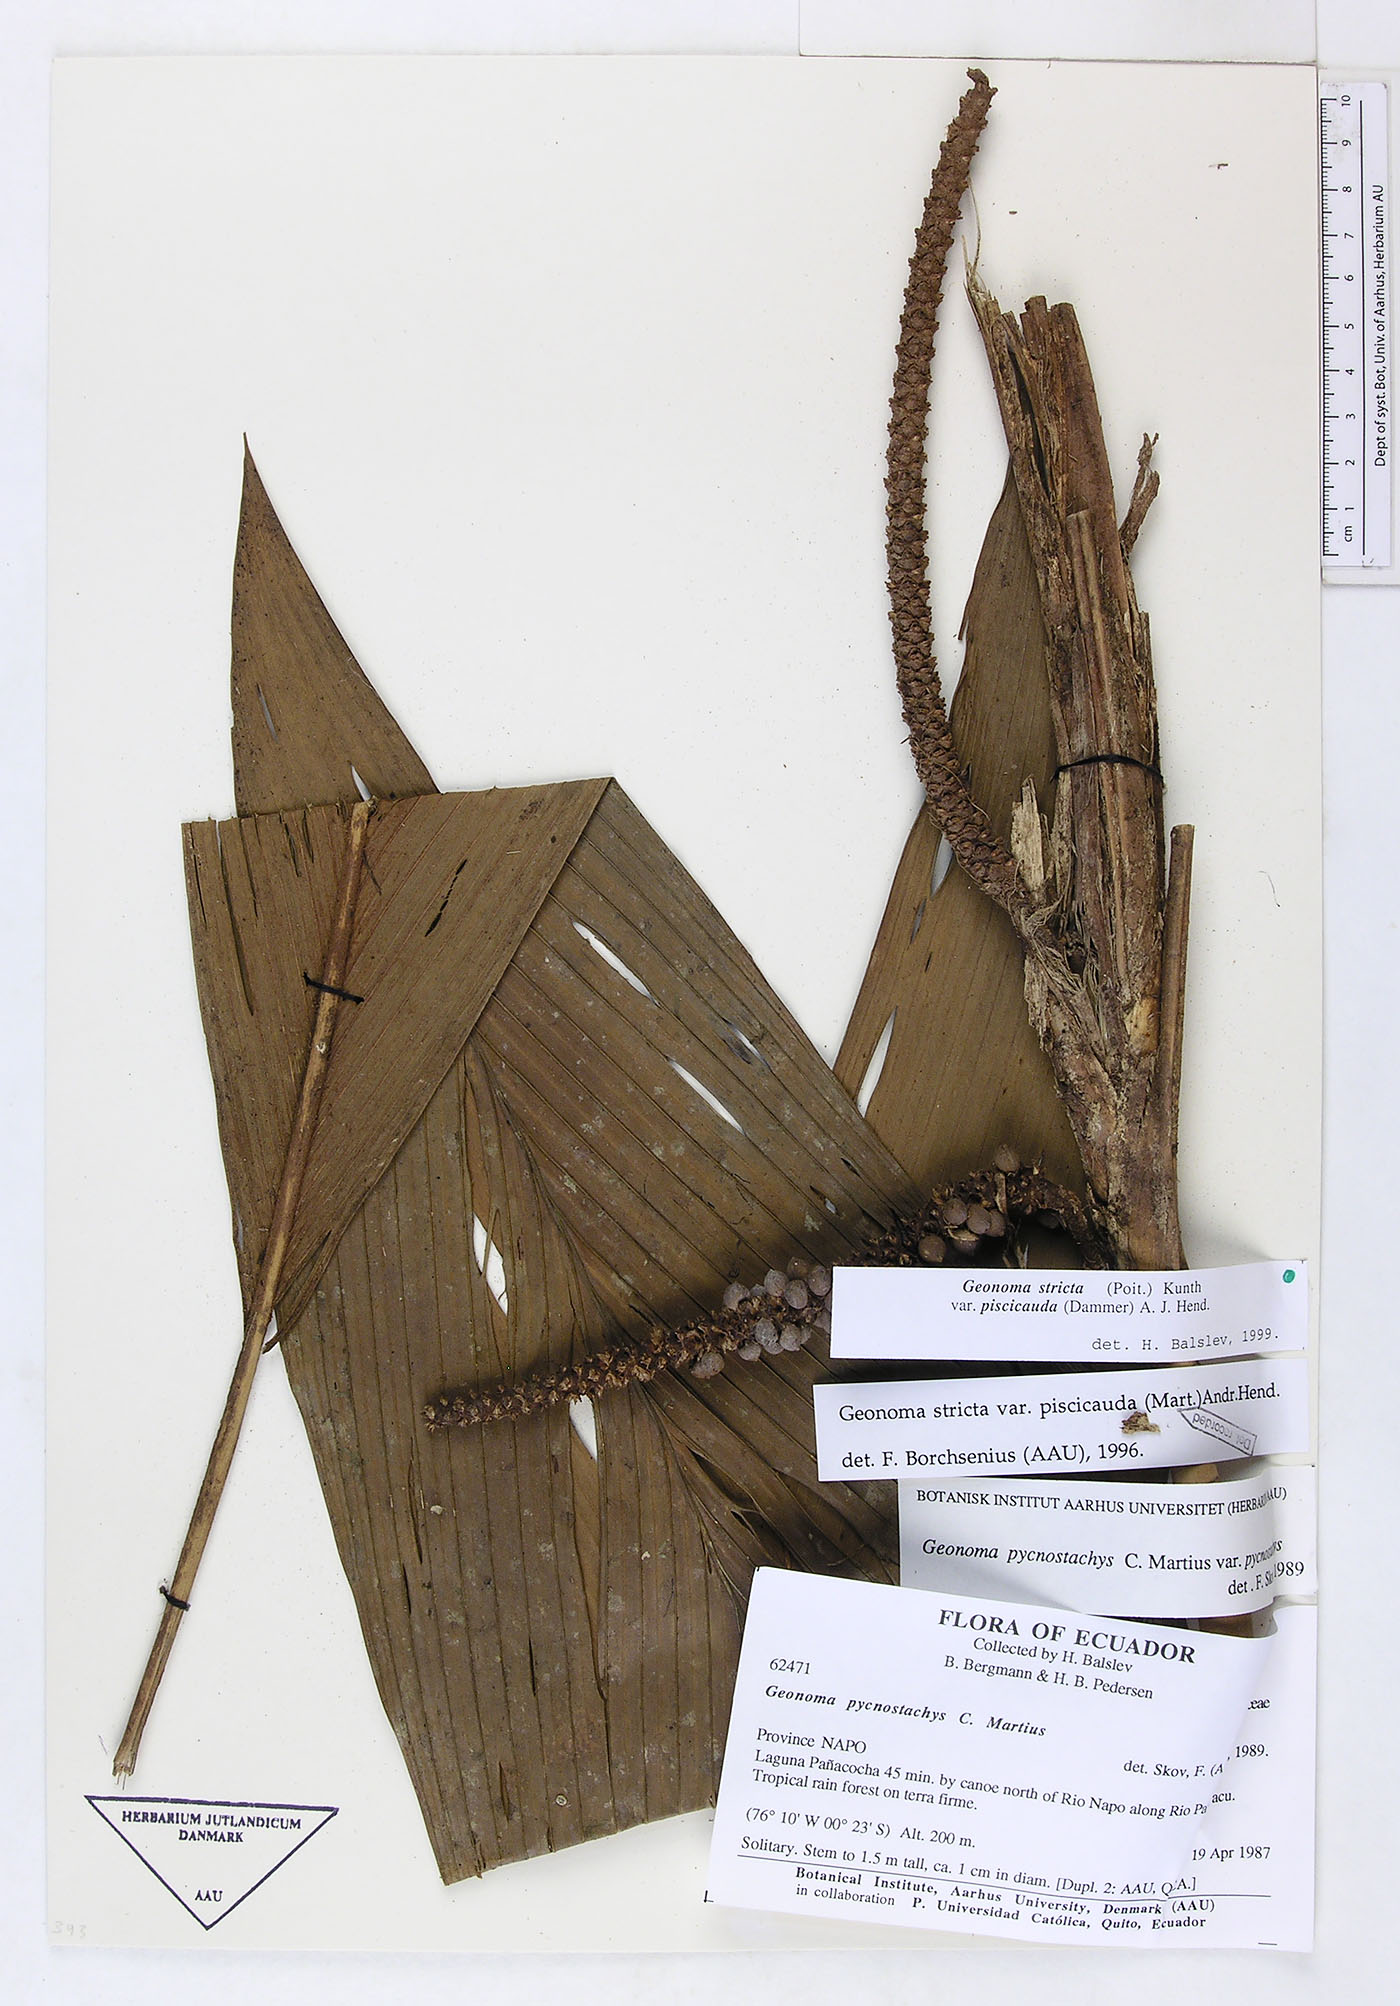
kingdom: Plantae
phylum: Tracheophyta
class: Liliopsida
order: Arecales
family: Arecaceae
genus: Geonoma
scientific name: Geonoma stricta
